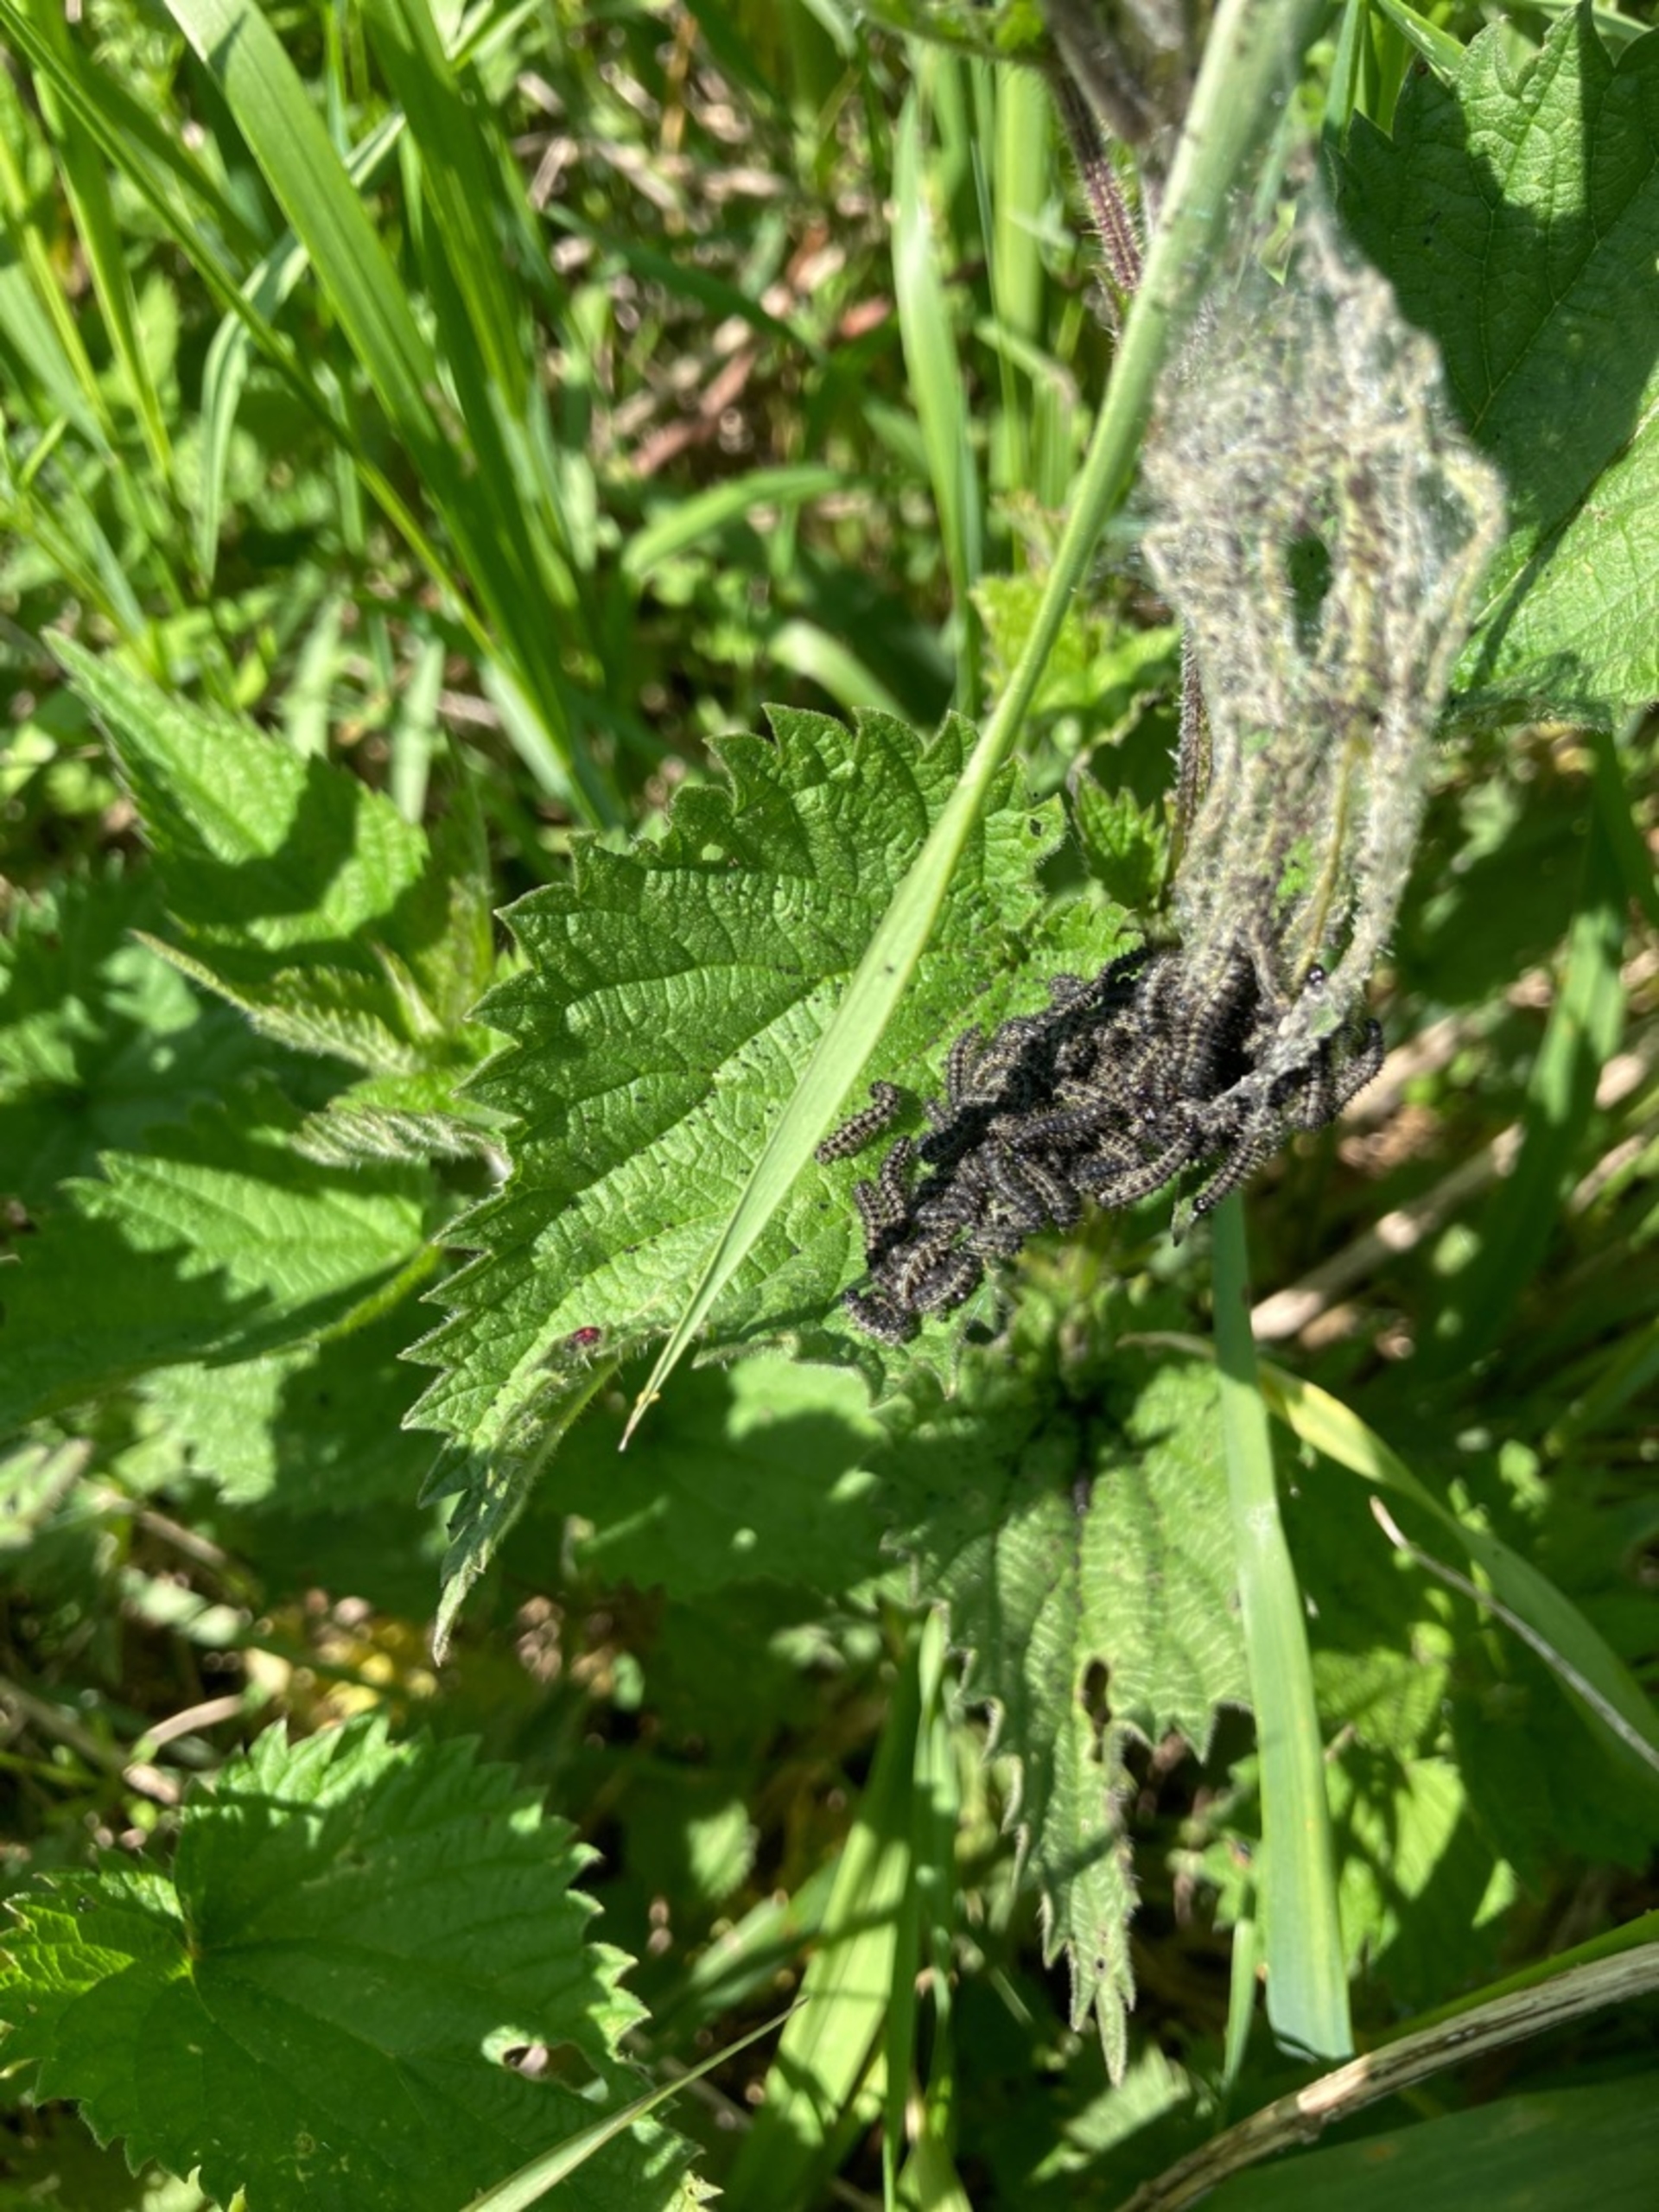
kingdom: Animalia
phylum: Arthropoda
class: Insecta
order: Lepidoptera
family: Nymphalidae
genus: Aglais
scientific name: Aglais urticae
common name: Nældens takvinge
